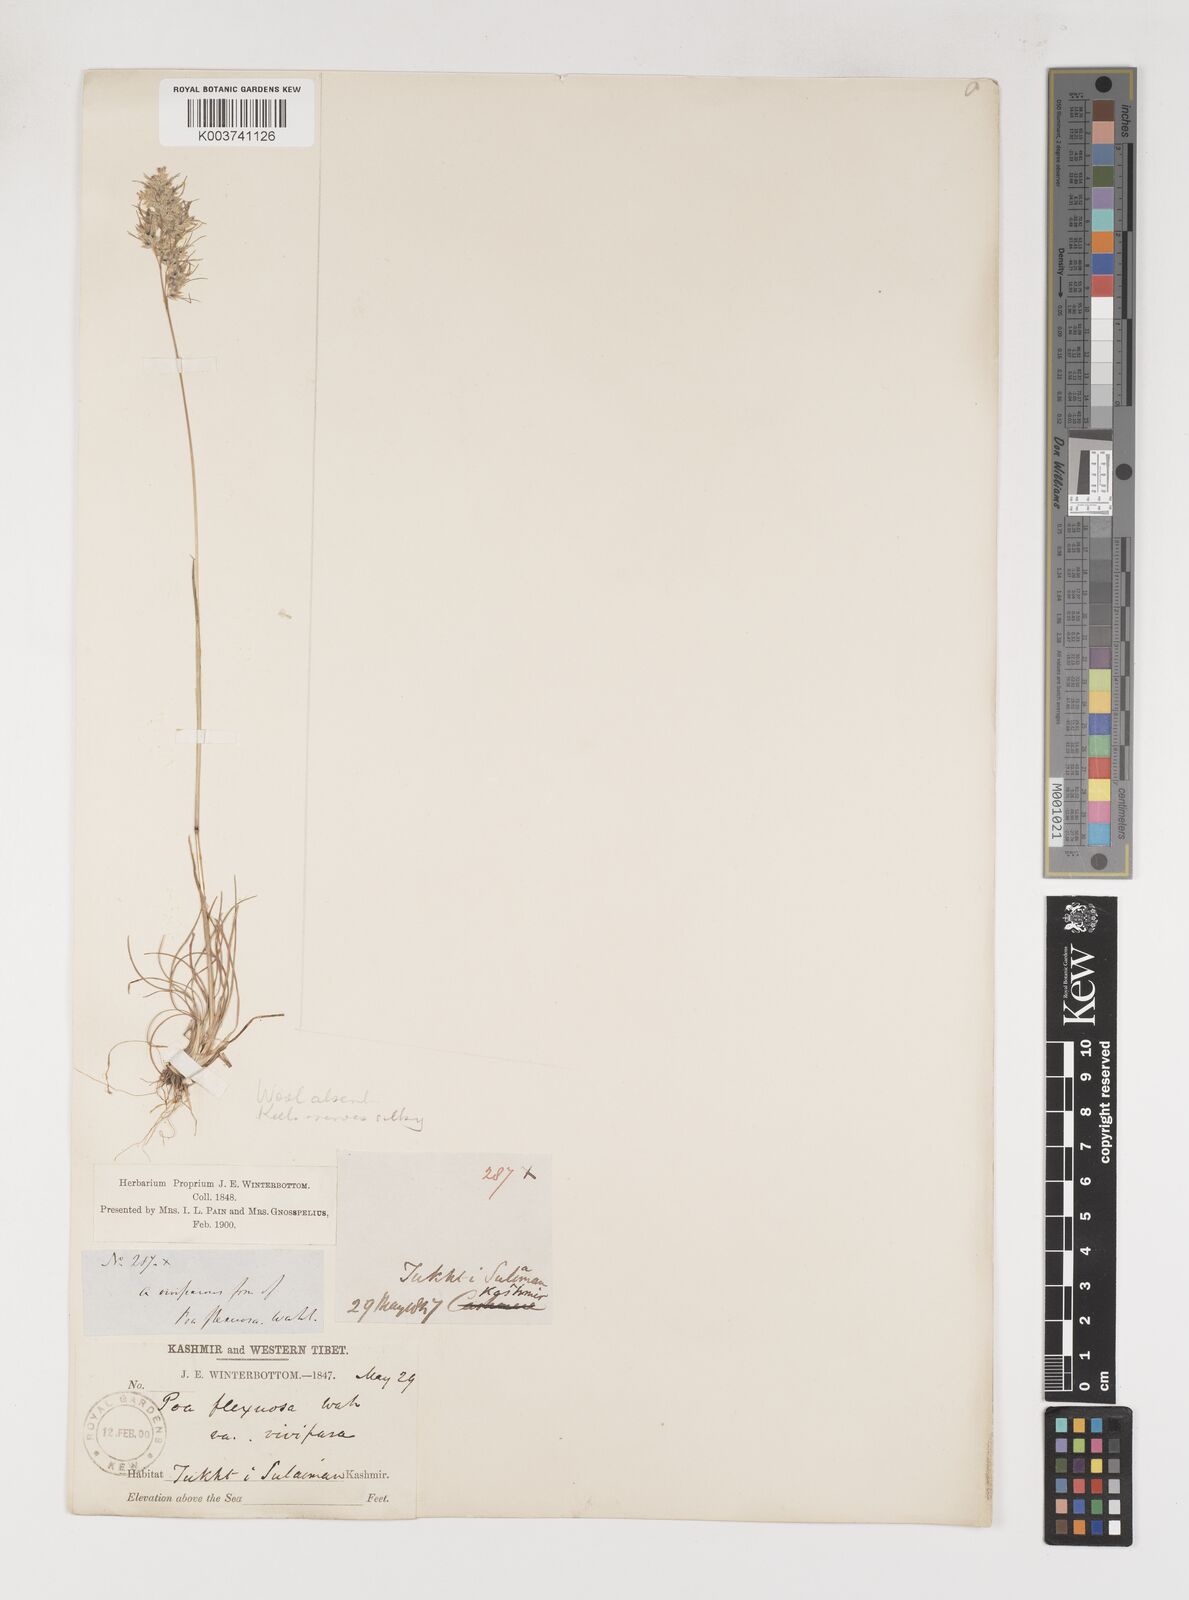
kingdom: Plantae
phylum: Tracheophyta
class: Liliopsida
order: Poales
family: Poaceae
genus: Poa
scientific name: Poa bulbosa
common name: Bulbous bluegrass
